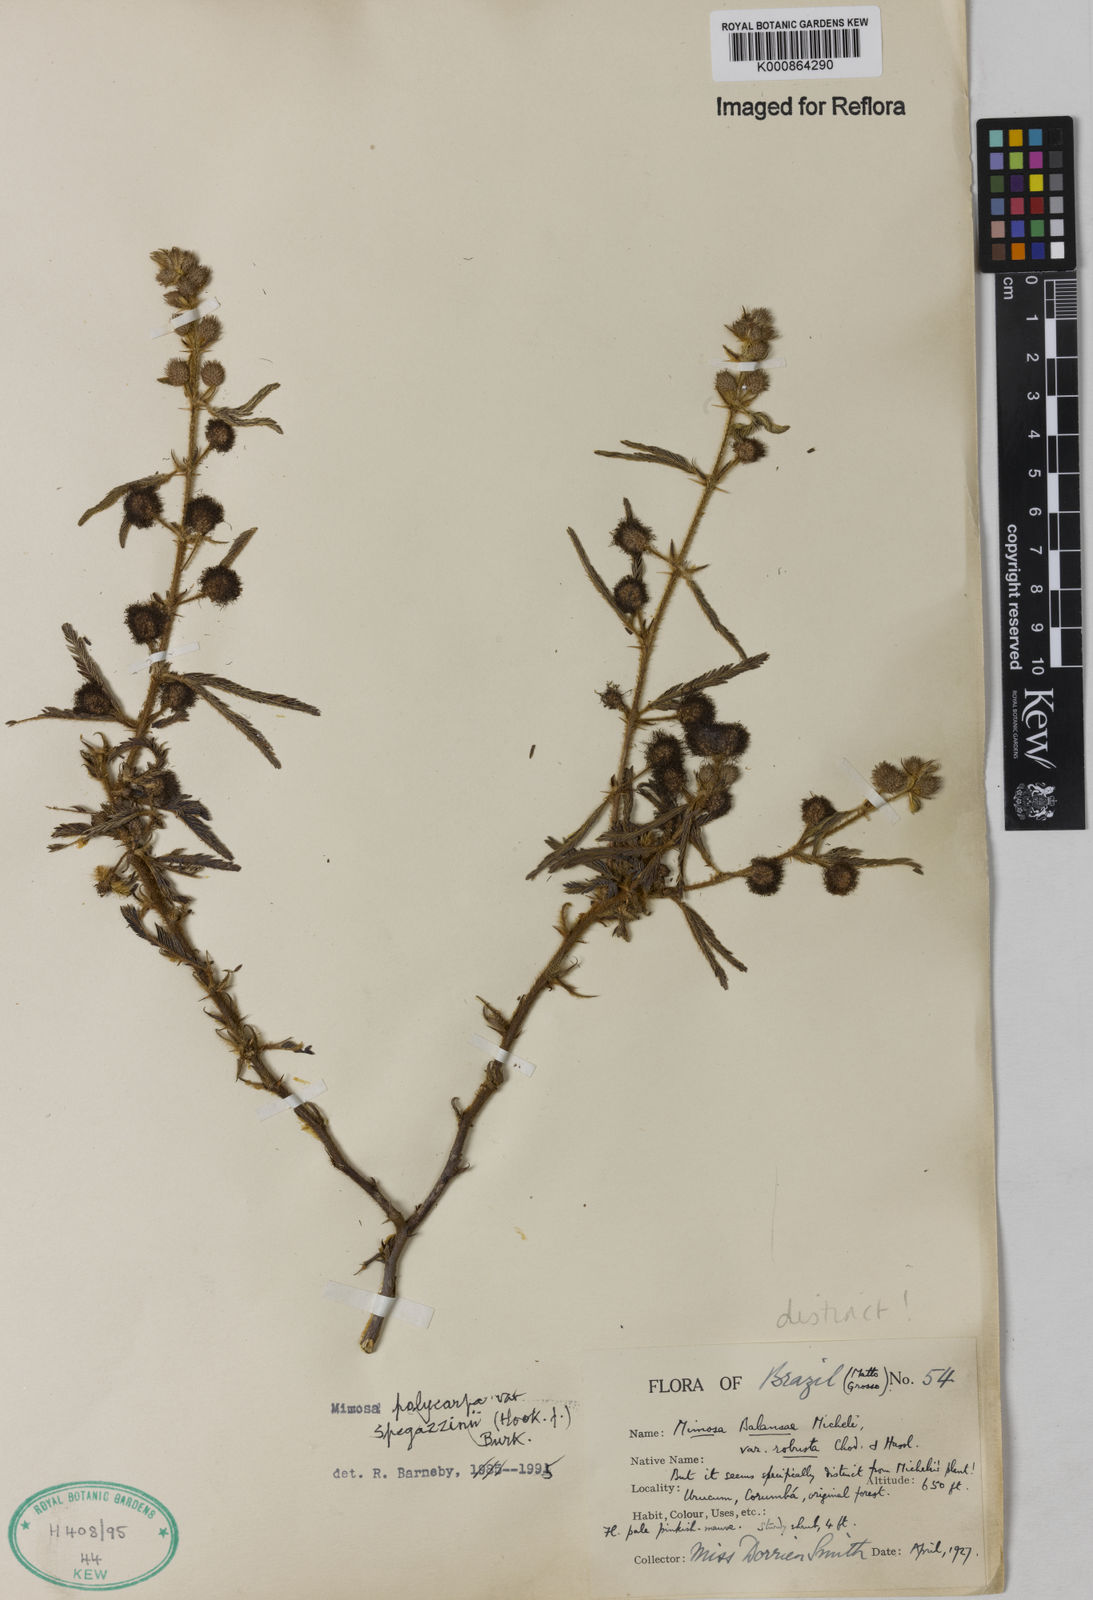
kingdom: Plantae
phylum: Tracheophyta
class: Magnoliopsida
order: Fabales
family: Fabaceae
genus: Mimosa
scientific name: Mimosa polycarpa
